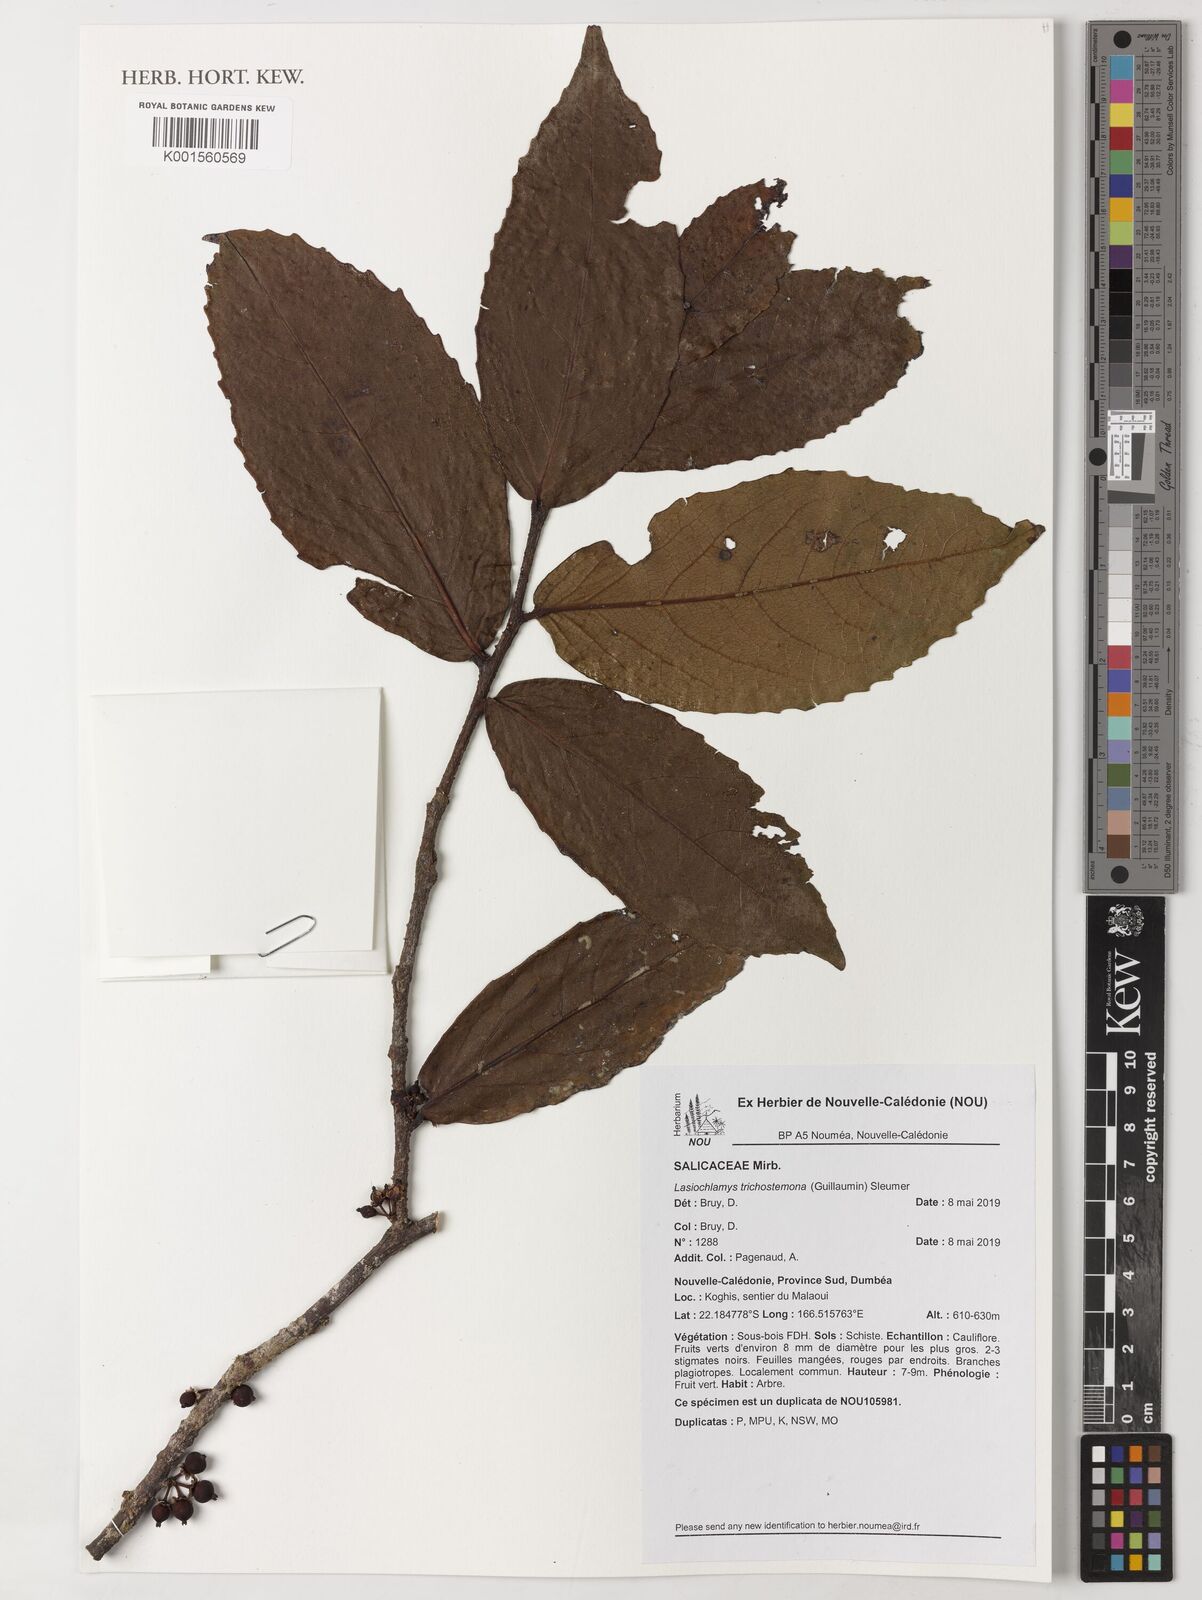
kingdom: Plantae
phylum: Tracheophyta
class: Magnoliopsida
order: Malpighiales
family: Salicaceae
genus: Lasiochlamys
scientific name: Lasiochlamys trichostemona
